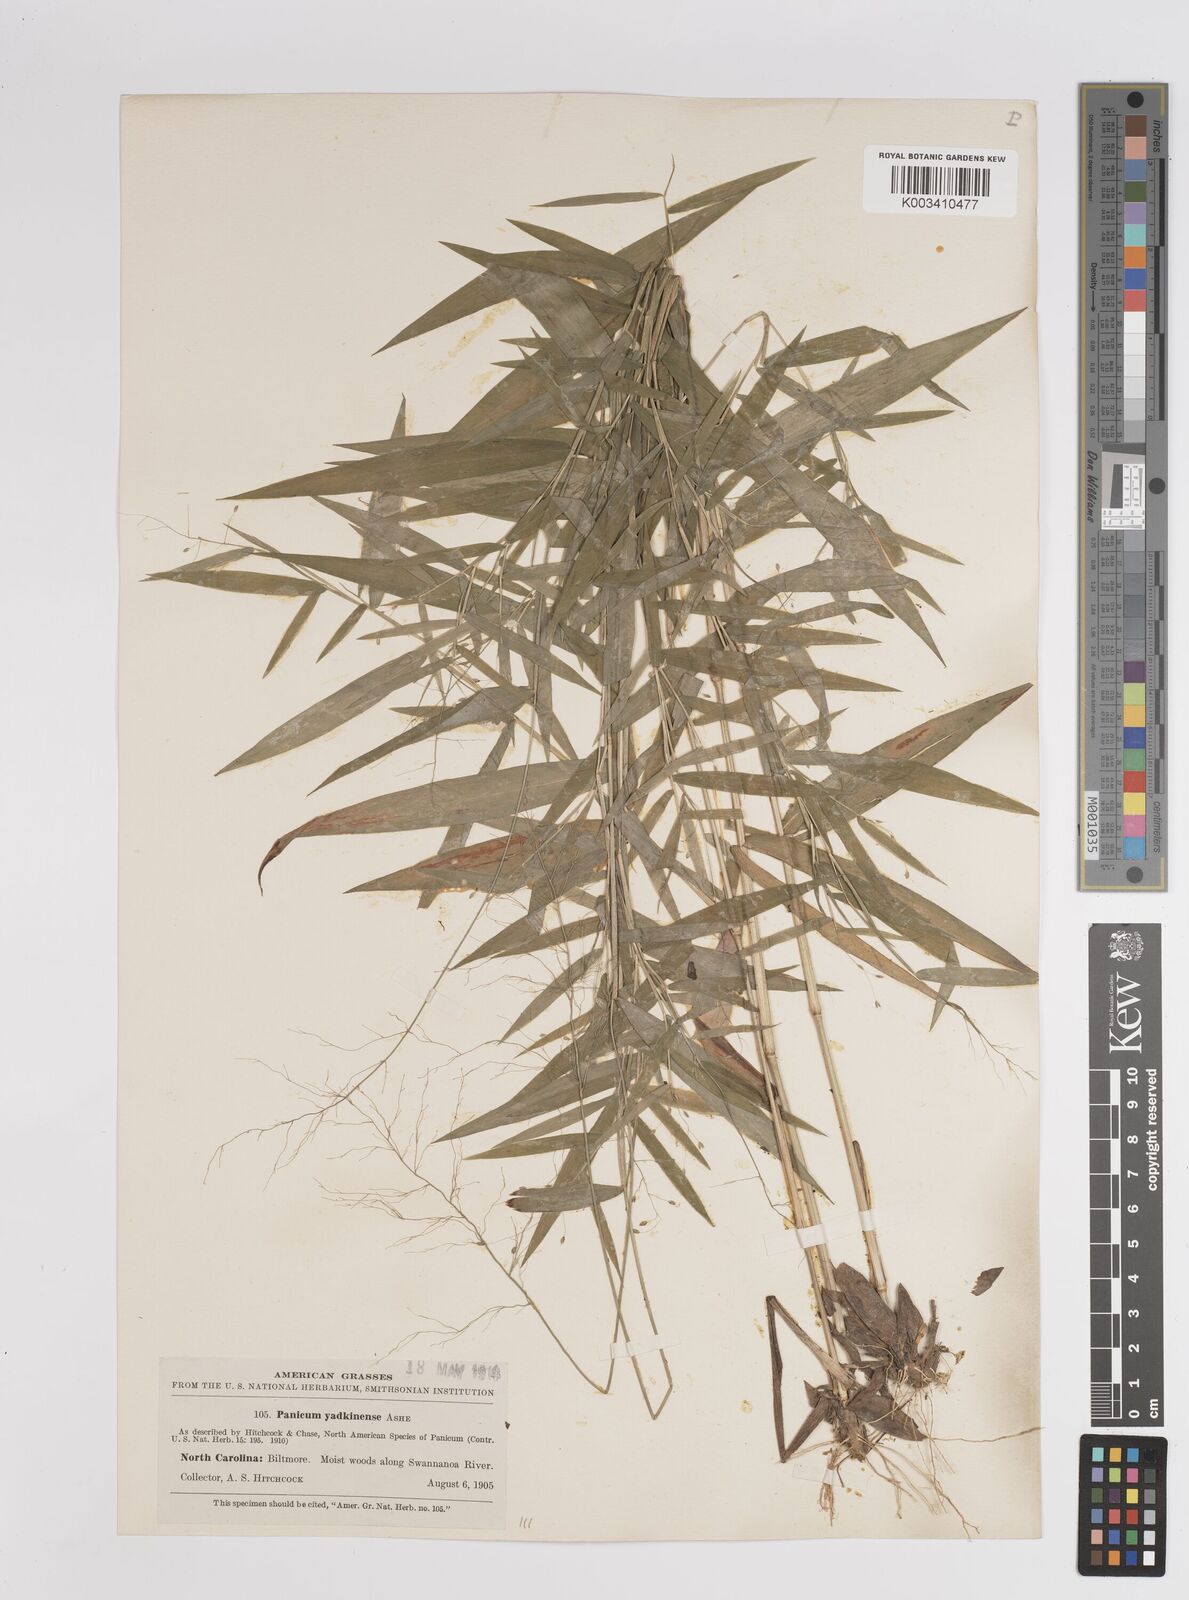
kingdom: Plantae
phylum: Tracheophyta
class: Liliopsida
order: Poales
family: Poaceae
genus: Dichanthelium
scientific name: Dichanthelium dichotomum
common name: Cypress panicgrass
